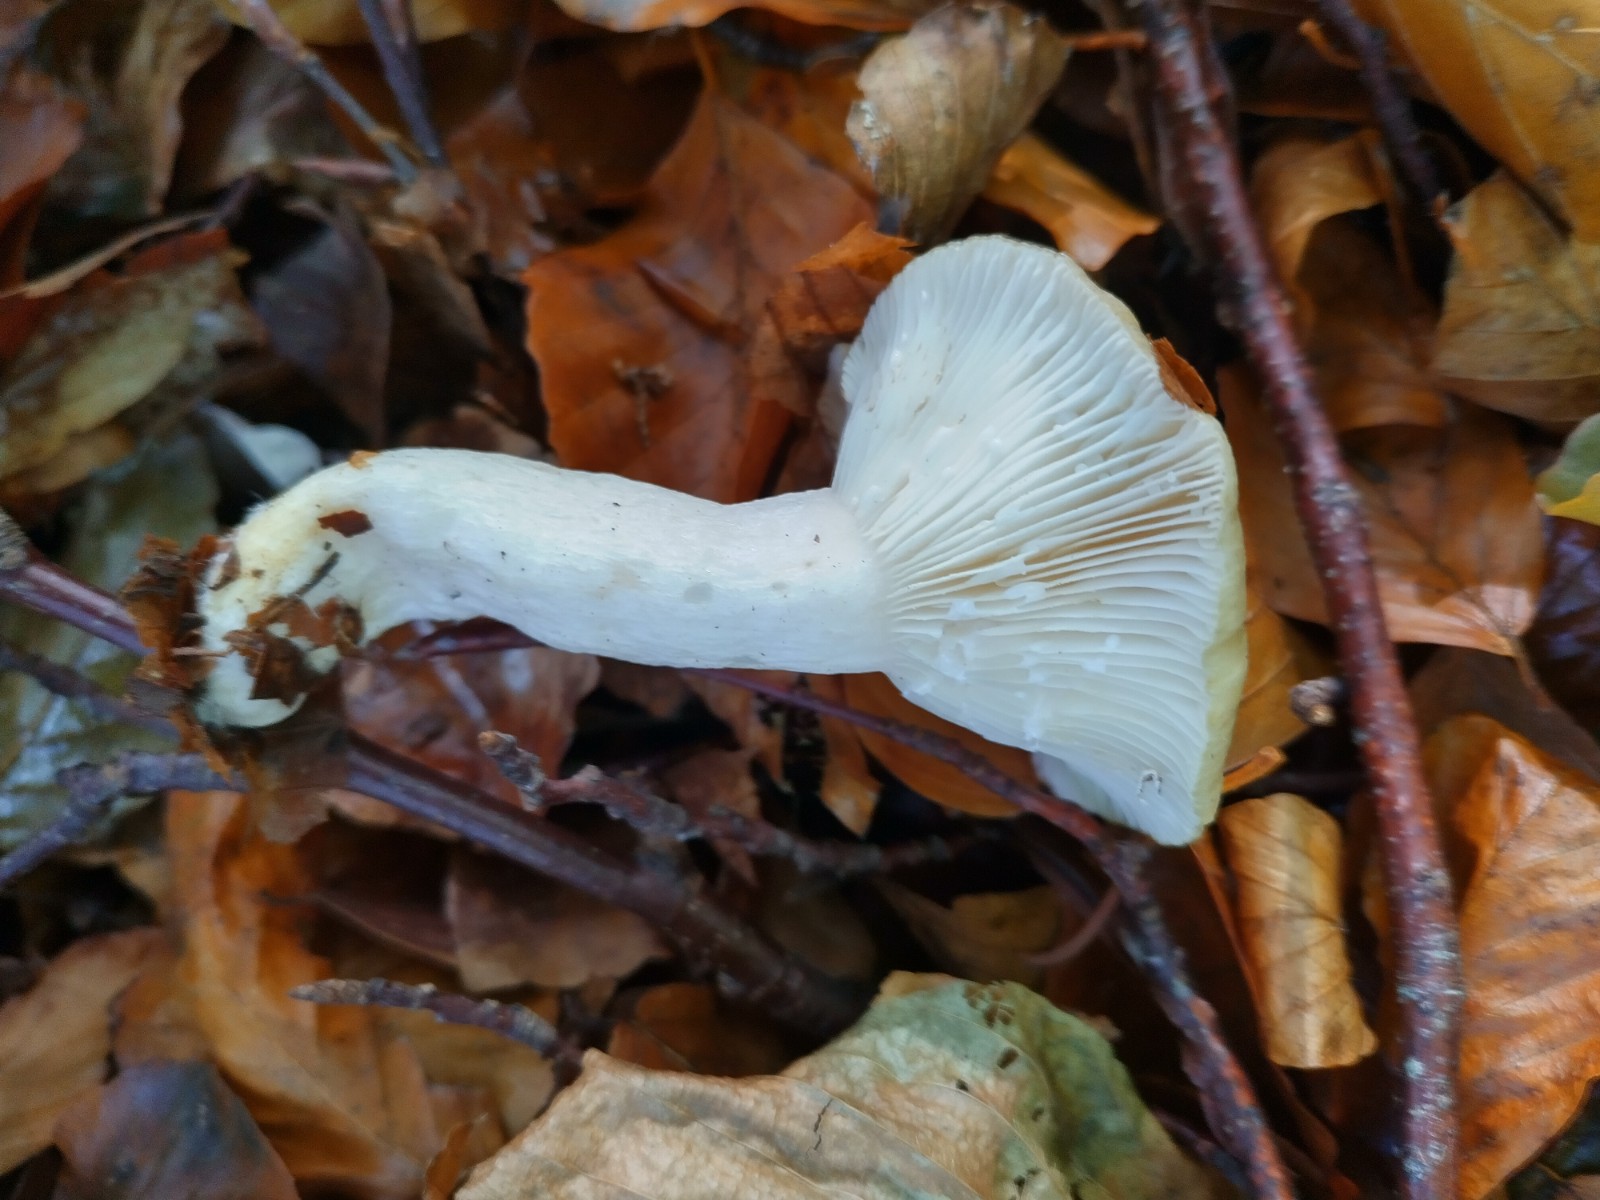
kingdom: Fungi
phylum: Basidiomycota
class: Agaricomycetes
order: Russulales
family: Russulaceae
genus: Lactifluus
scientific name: Lactifluus vellereus
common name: hvidfiltet mælkehat
